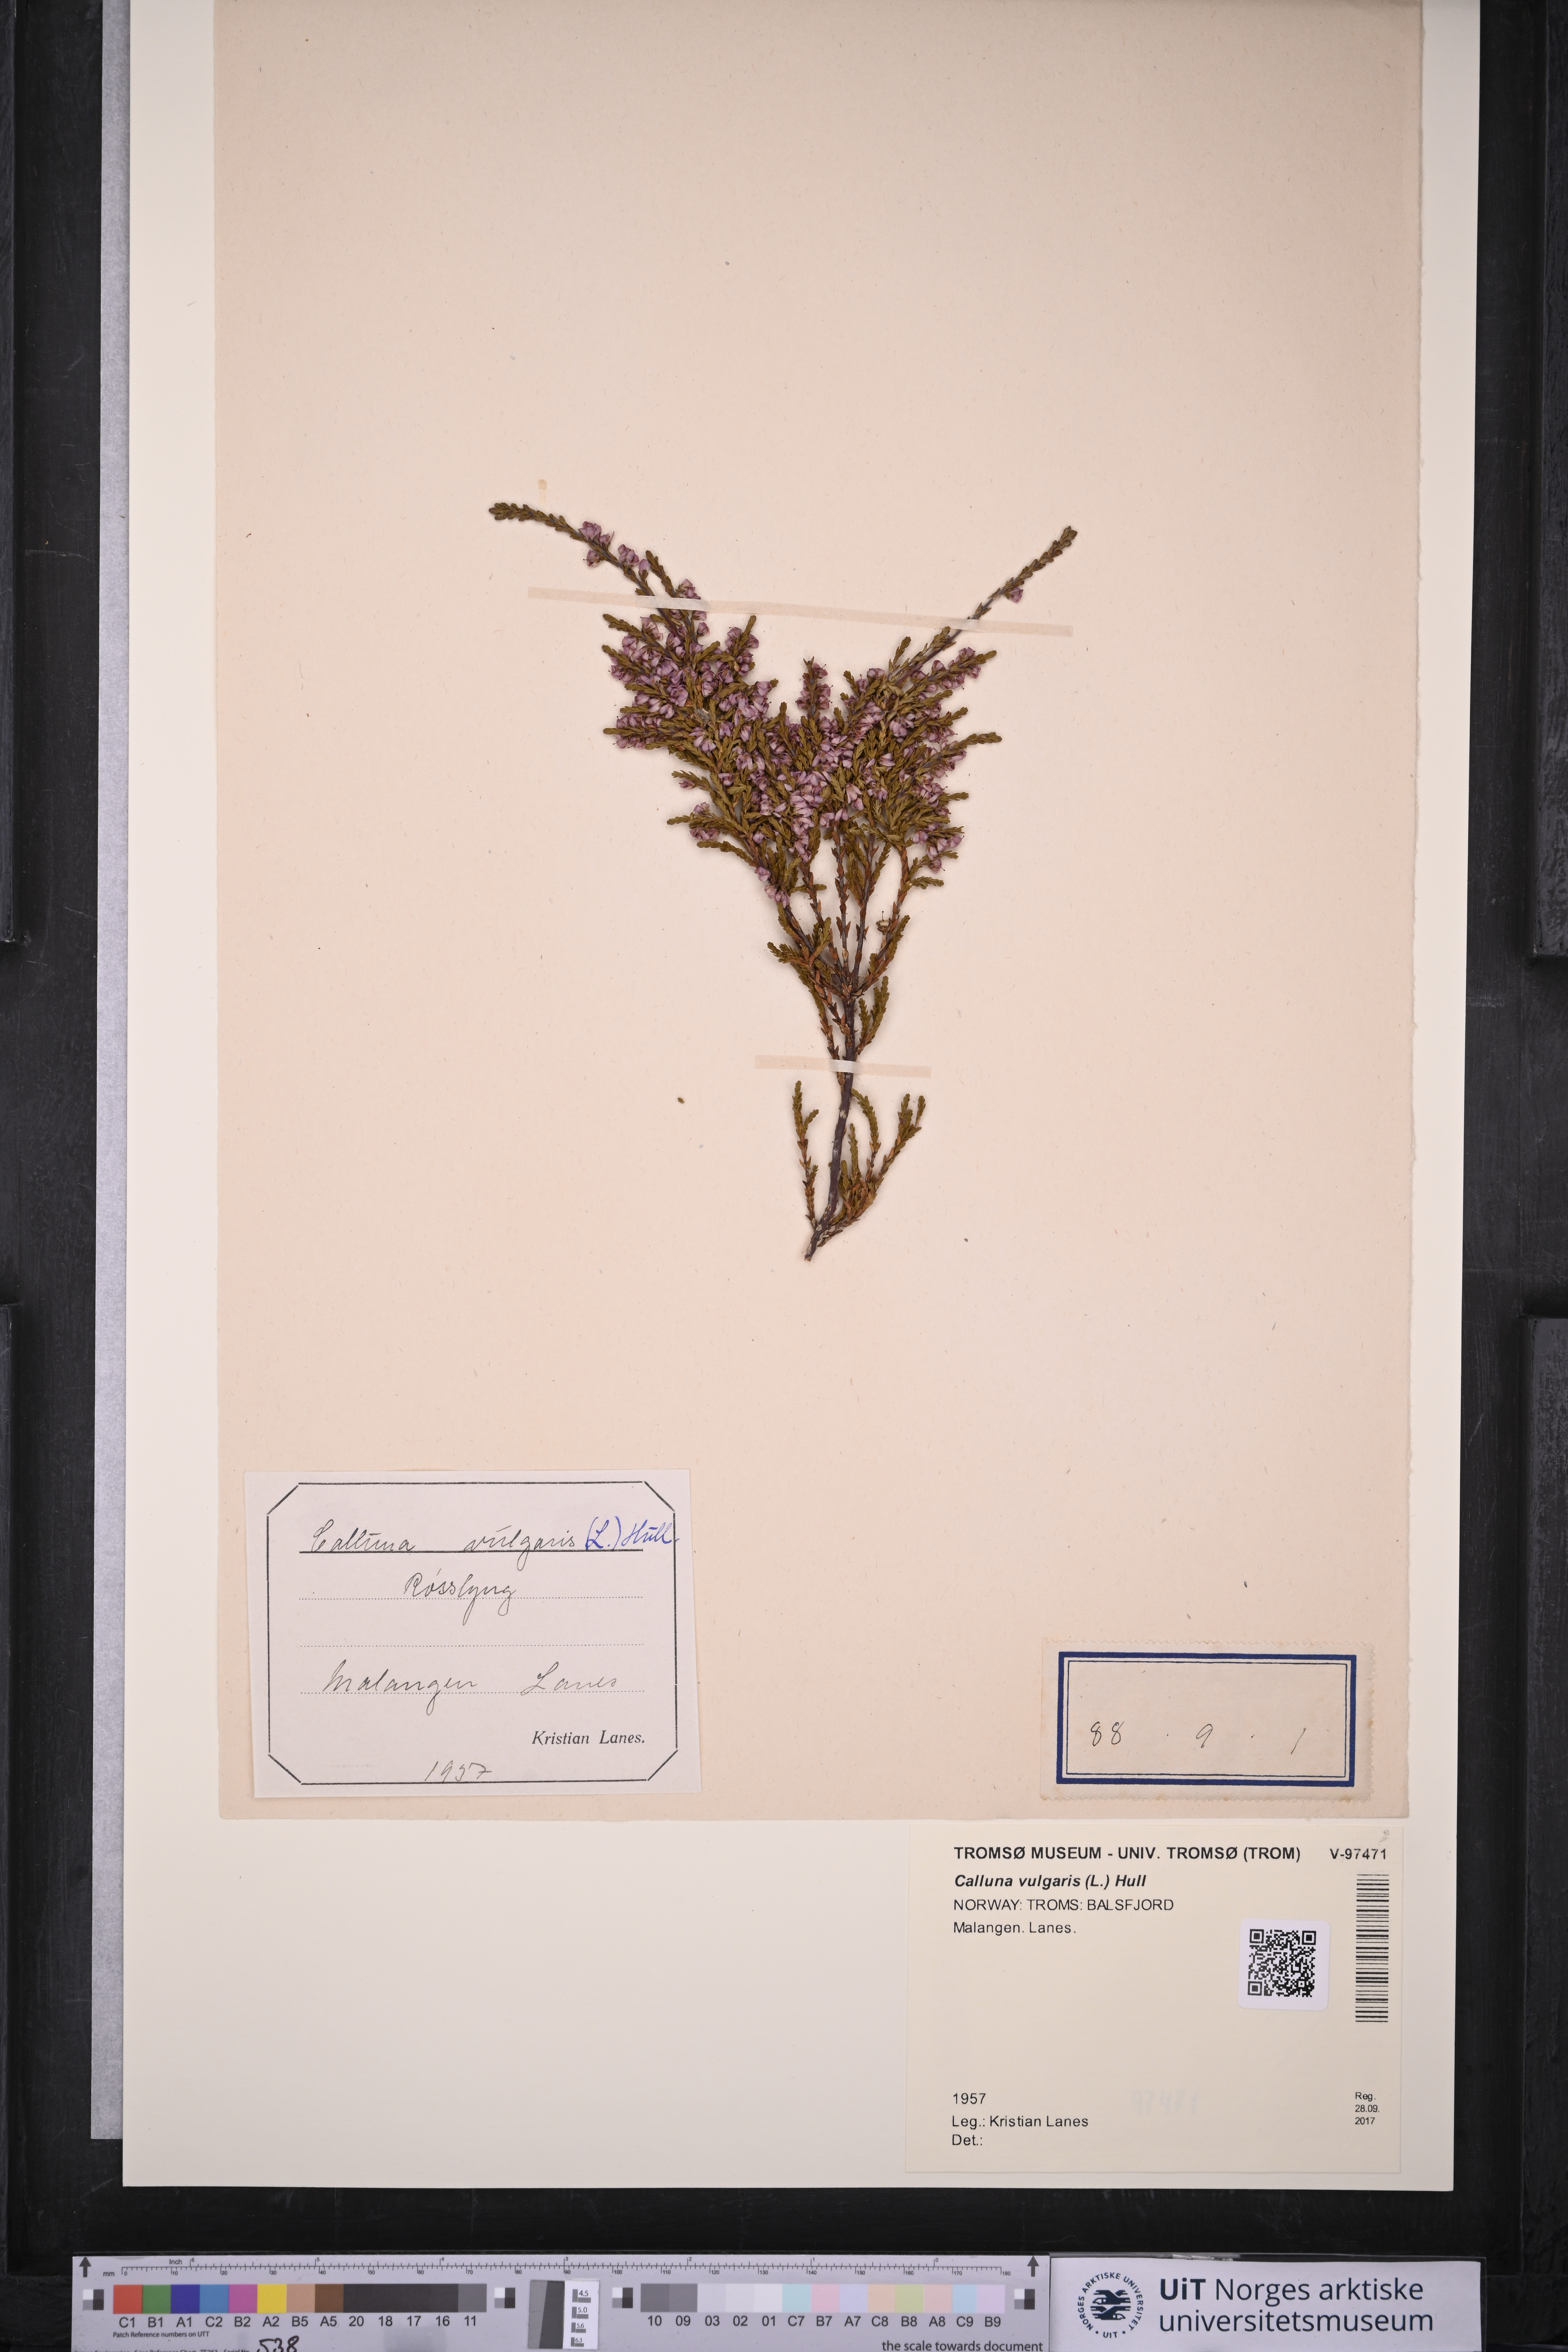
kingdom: Plantae
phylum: Tracheophyta
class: Magnoliopsida
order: Ericales
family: Ericaceae
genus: Calluna
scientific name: Calluna vulgaris
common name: Heather
